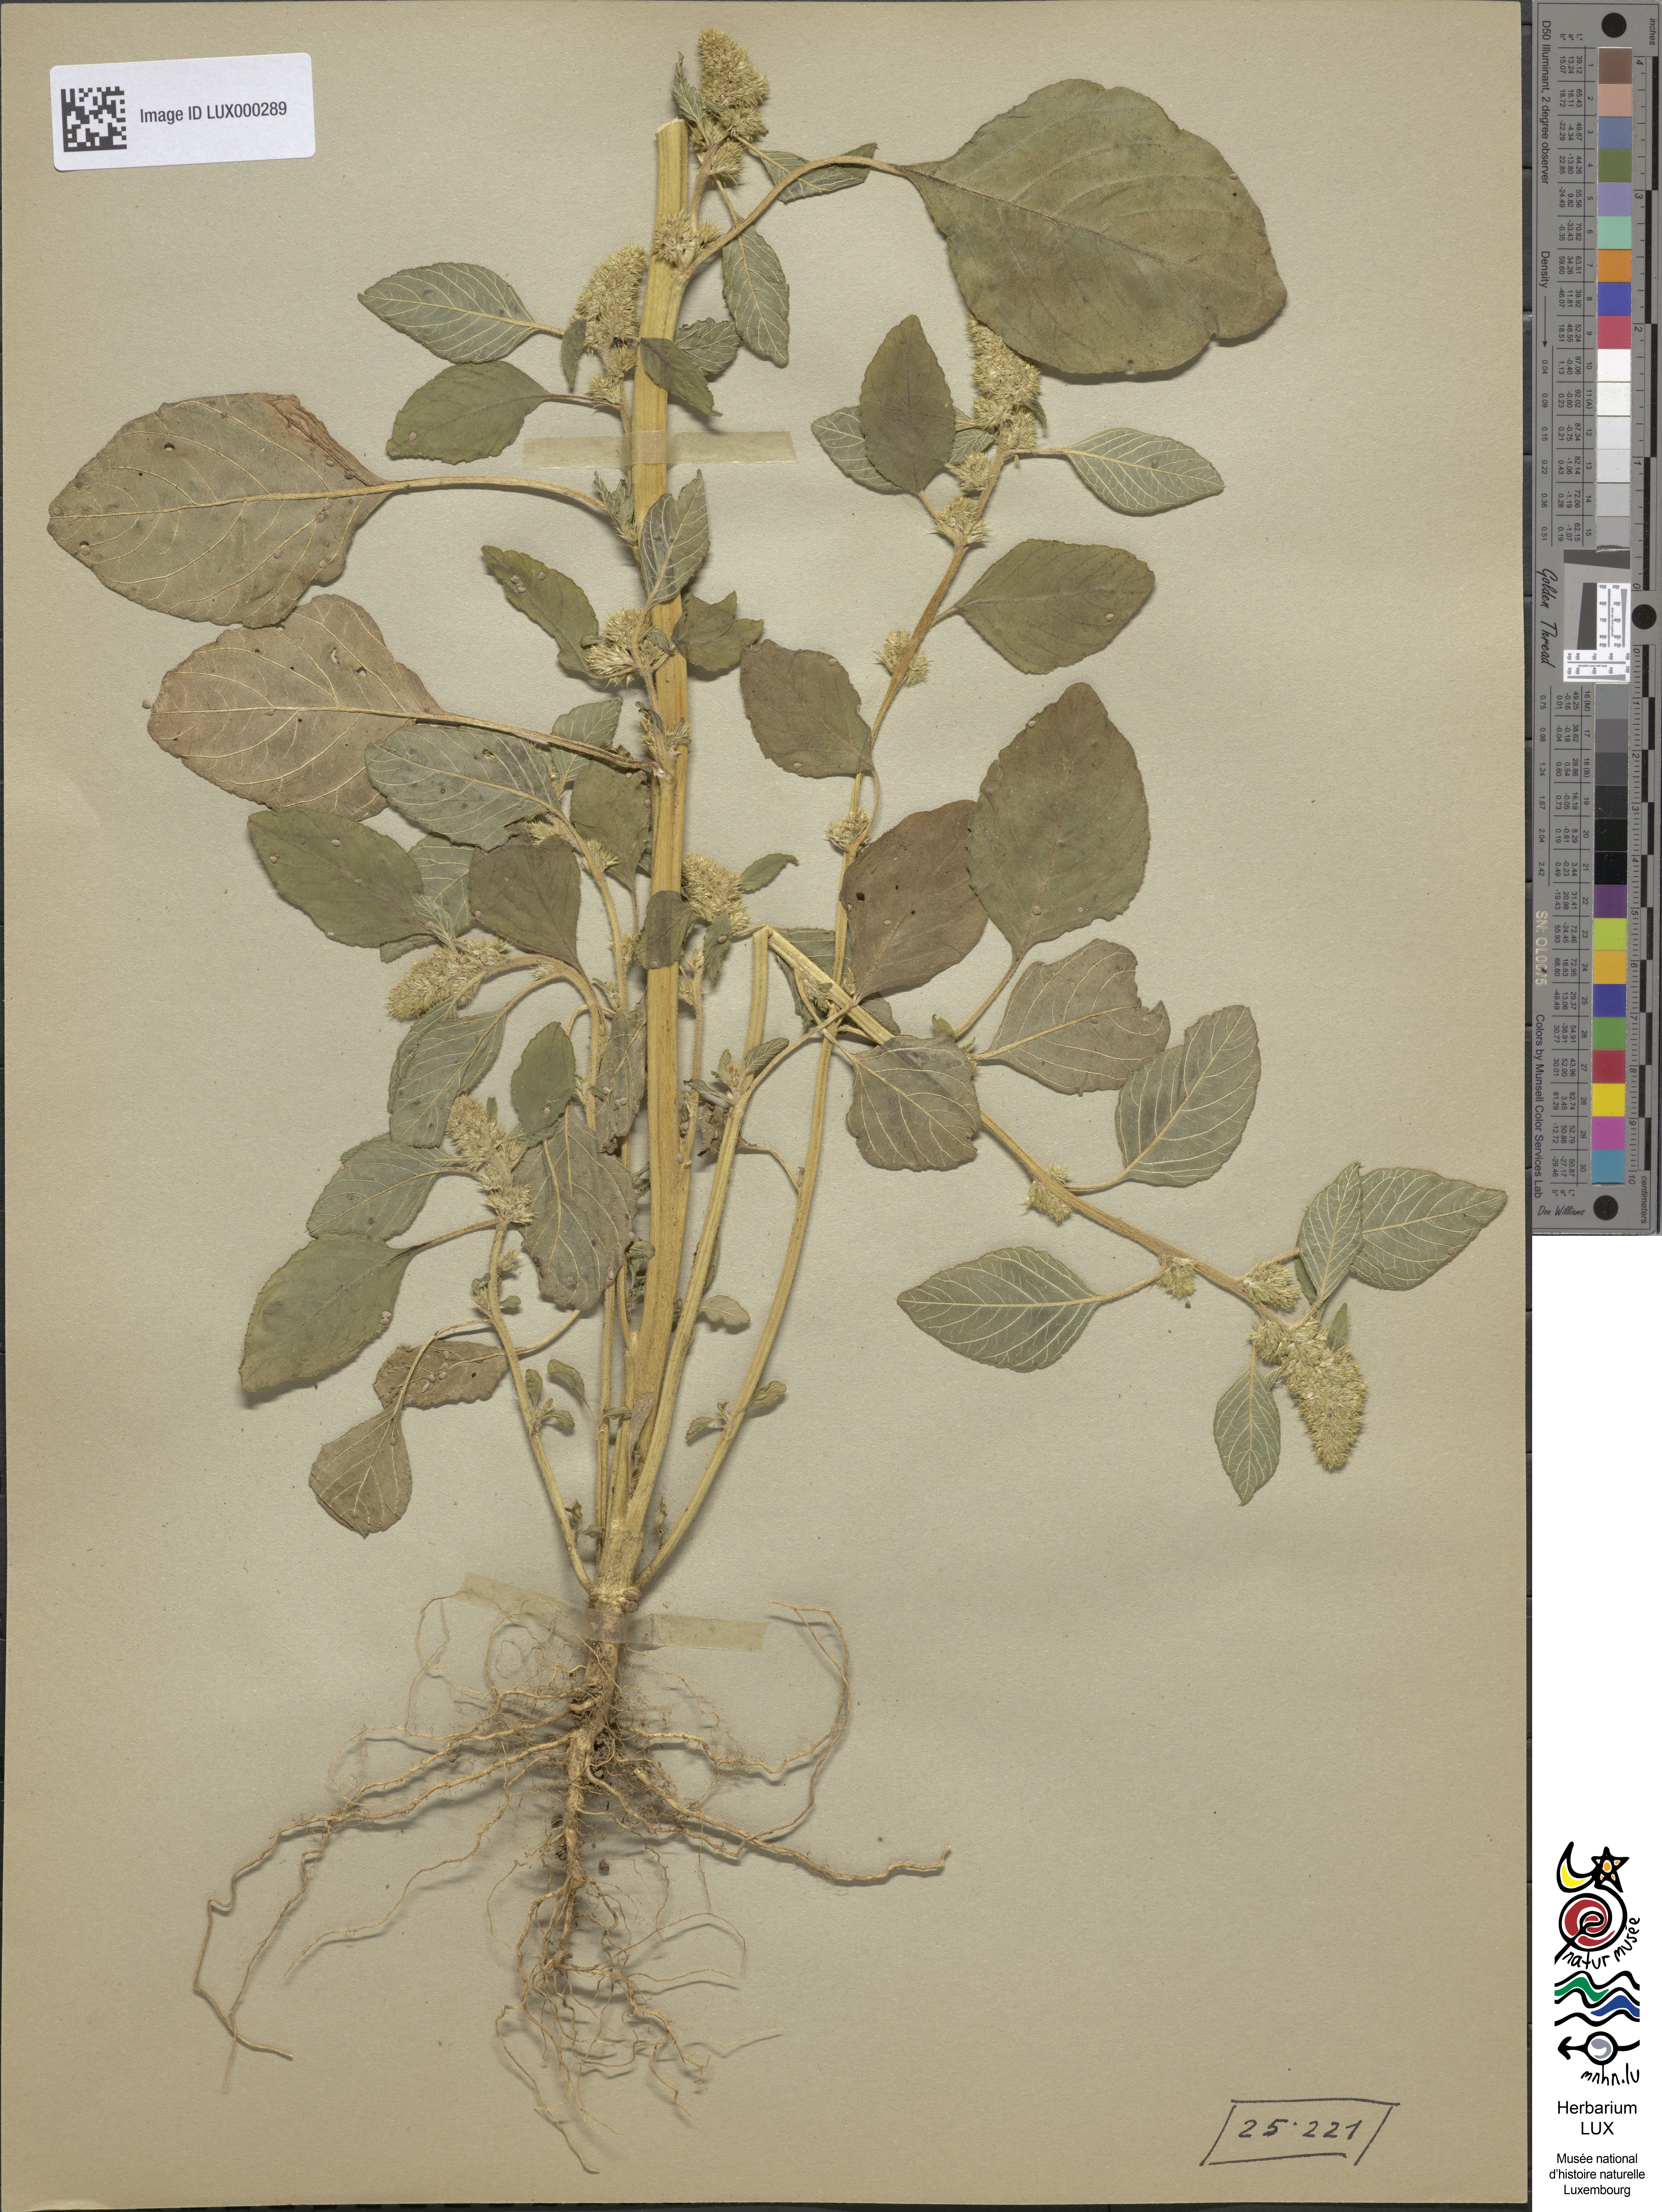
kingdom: Plantae
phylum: Tracheophyta
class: Magnoliopsida
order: Caryophyllales
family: Amaranthaceae
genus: Amaranthus
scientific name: Amaranthus retroflexus
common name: Redroot amaranth
